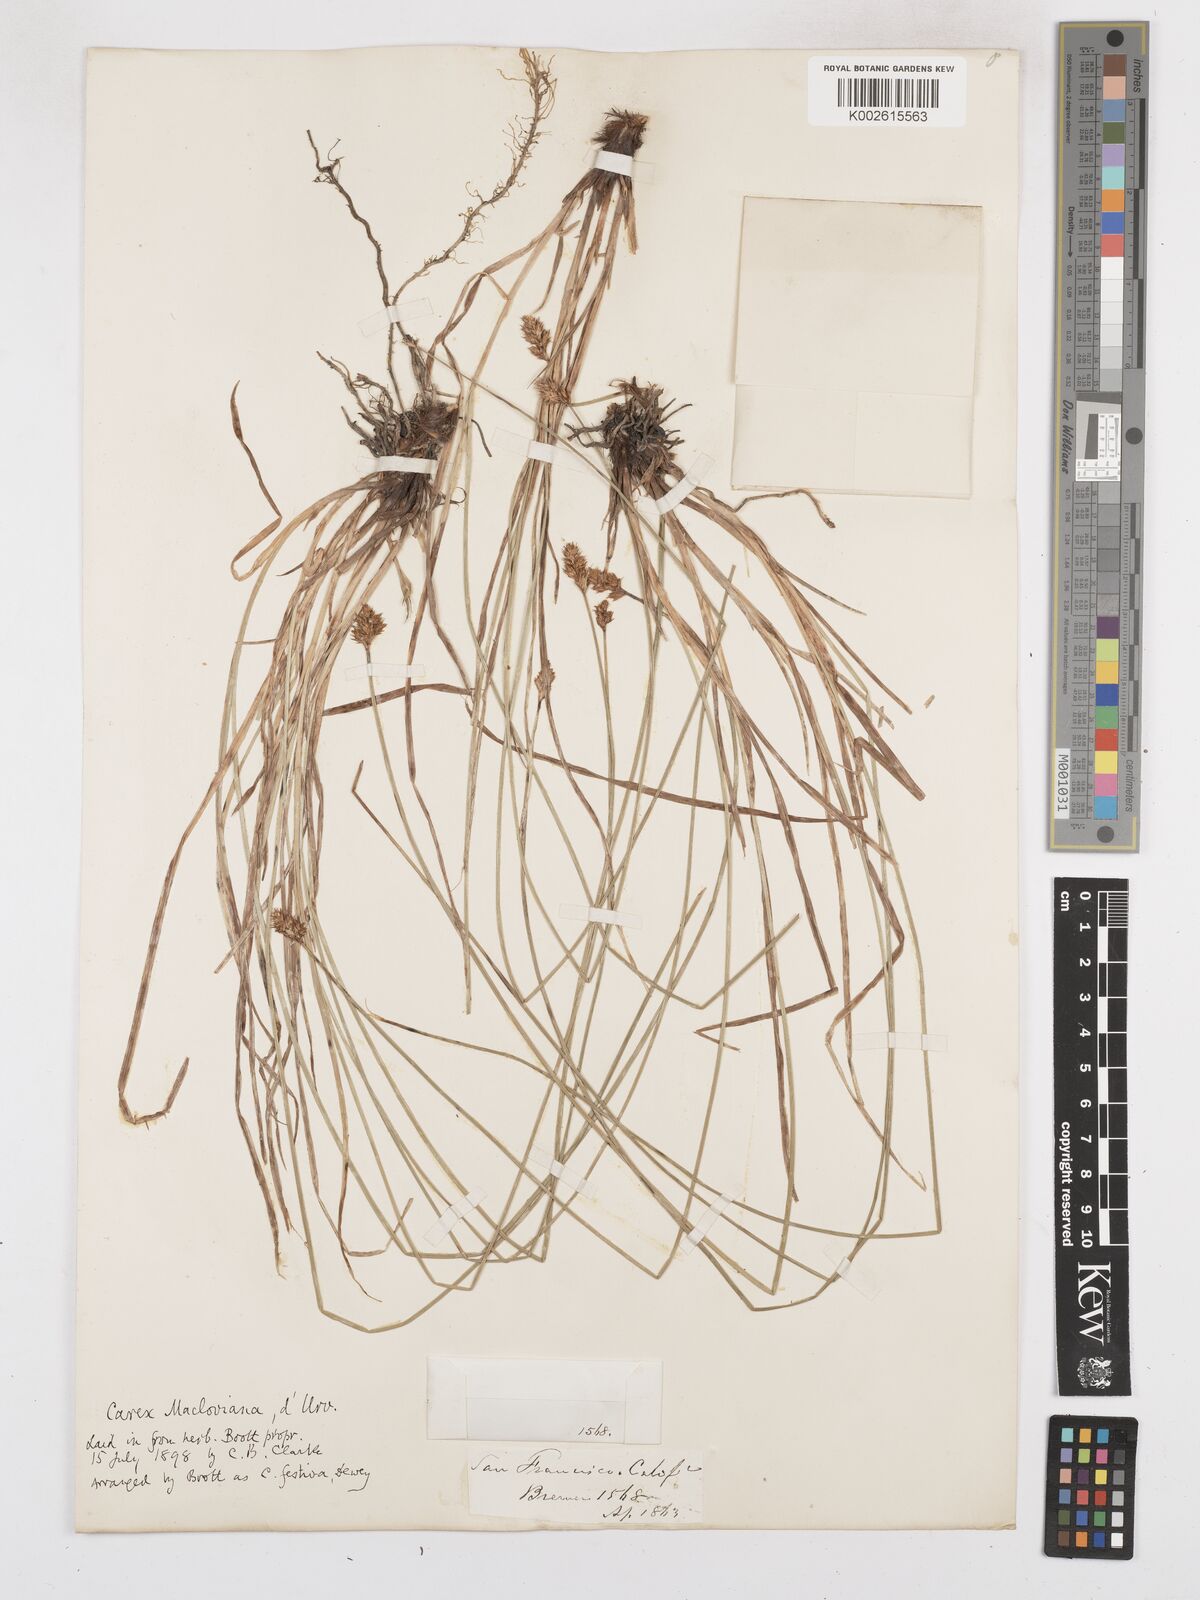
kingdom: Plantae
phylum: Tracheophyta
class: Liliopsida
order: Poales
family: Cyperaceae
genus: Carex
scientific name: Carex macloviana
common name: Falkland island sedge
